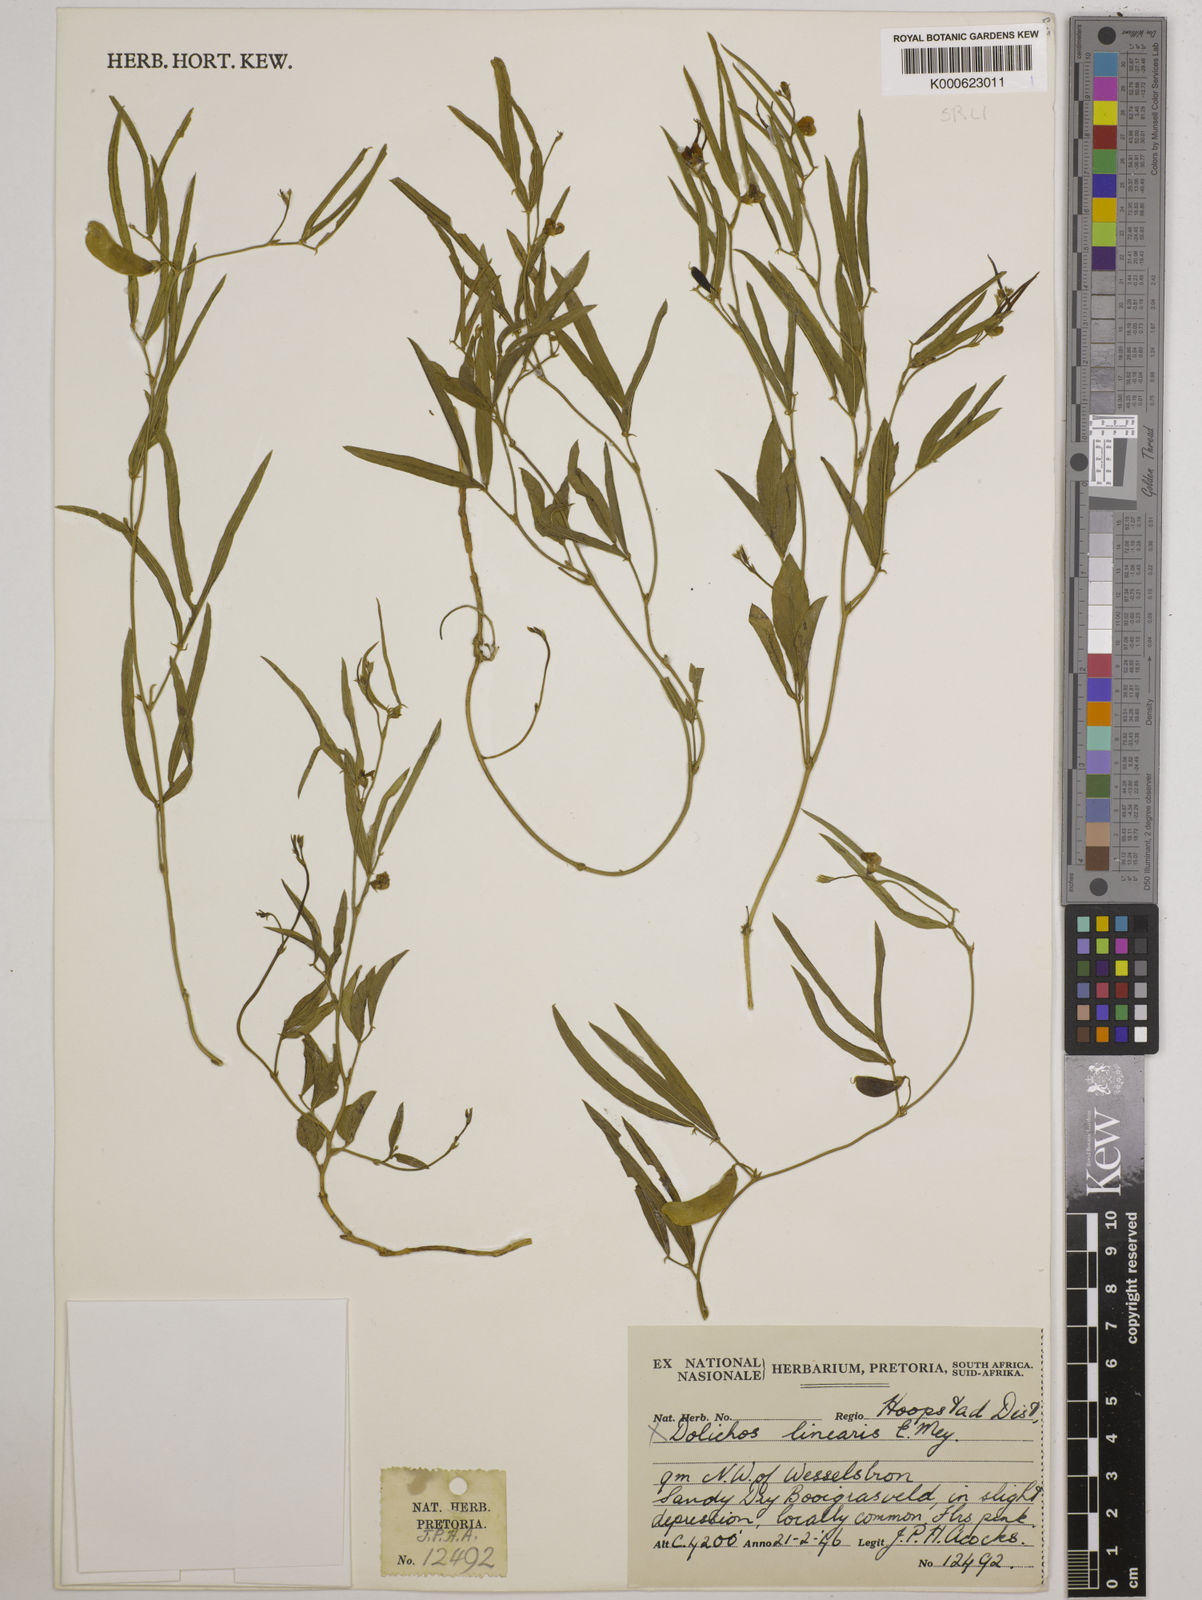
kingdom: Plantae
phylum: Tracheophyta
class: Magnoliopsida
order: Fabales
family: Fabaceae
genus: Dolichos
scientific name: Dolichos linearis
